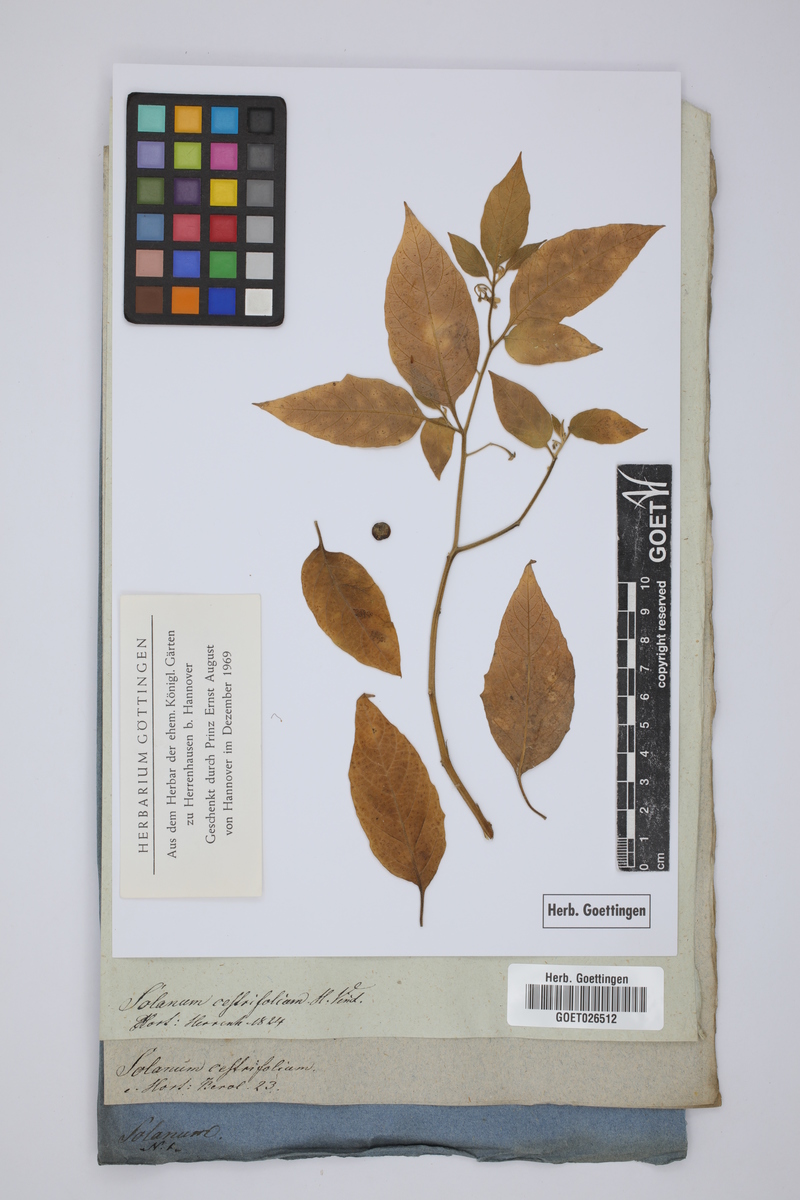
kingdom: Plantae
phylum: Tracheophyta
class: Magnoliopsida
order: Solanales
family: Solanaceae
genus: Solanum
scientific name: Solanum nigrum
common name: Black nightshade
